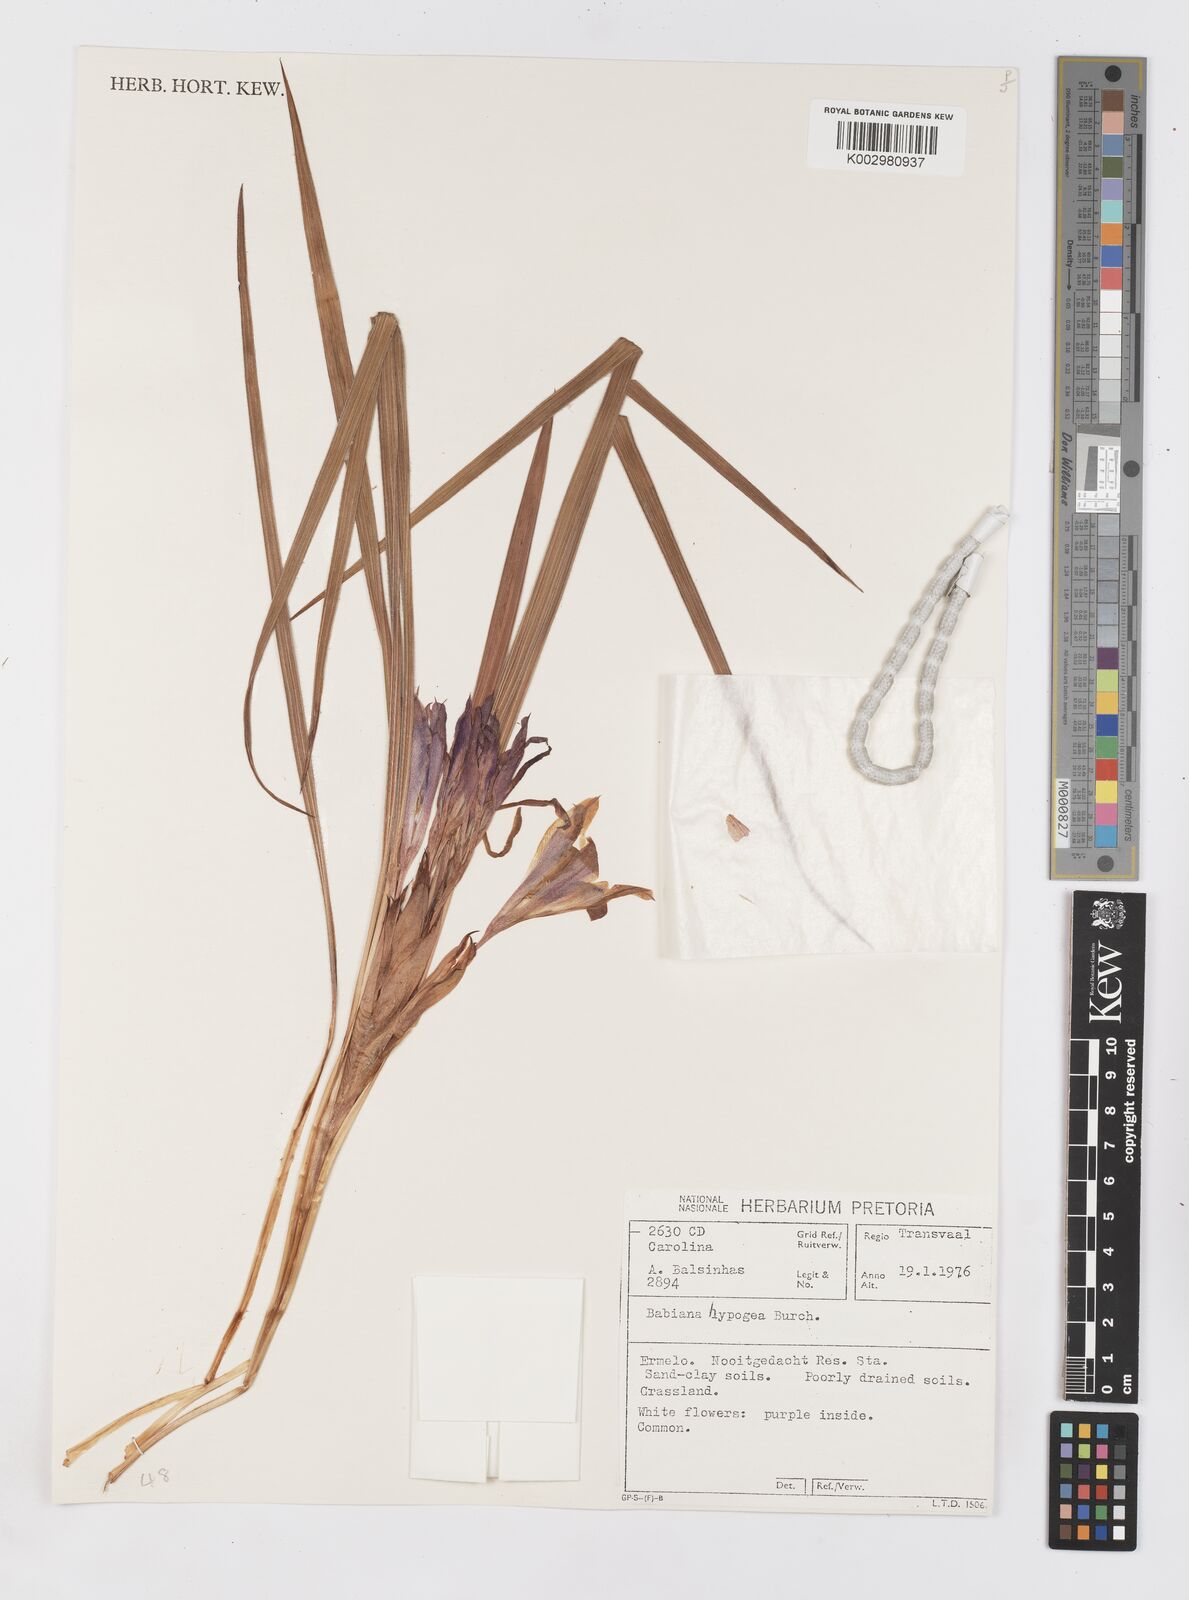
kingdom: Plantae
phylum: Tracheophyta
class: Liliopsida
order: Asparagales
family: Iridaceae
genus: Babiana
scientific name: Babiana hypogaea
